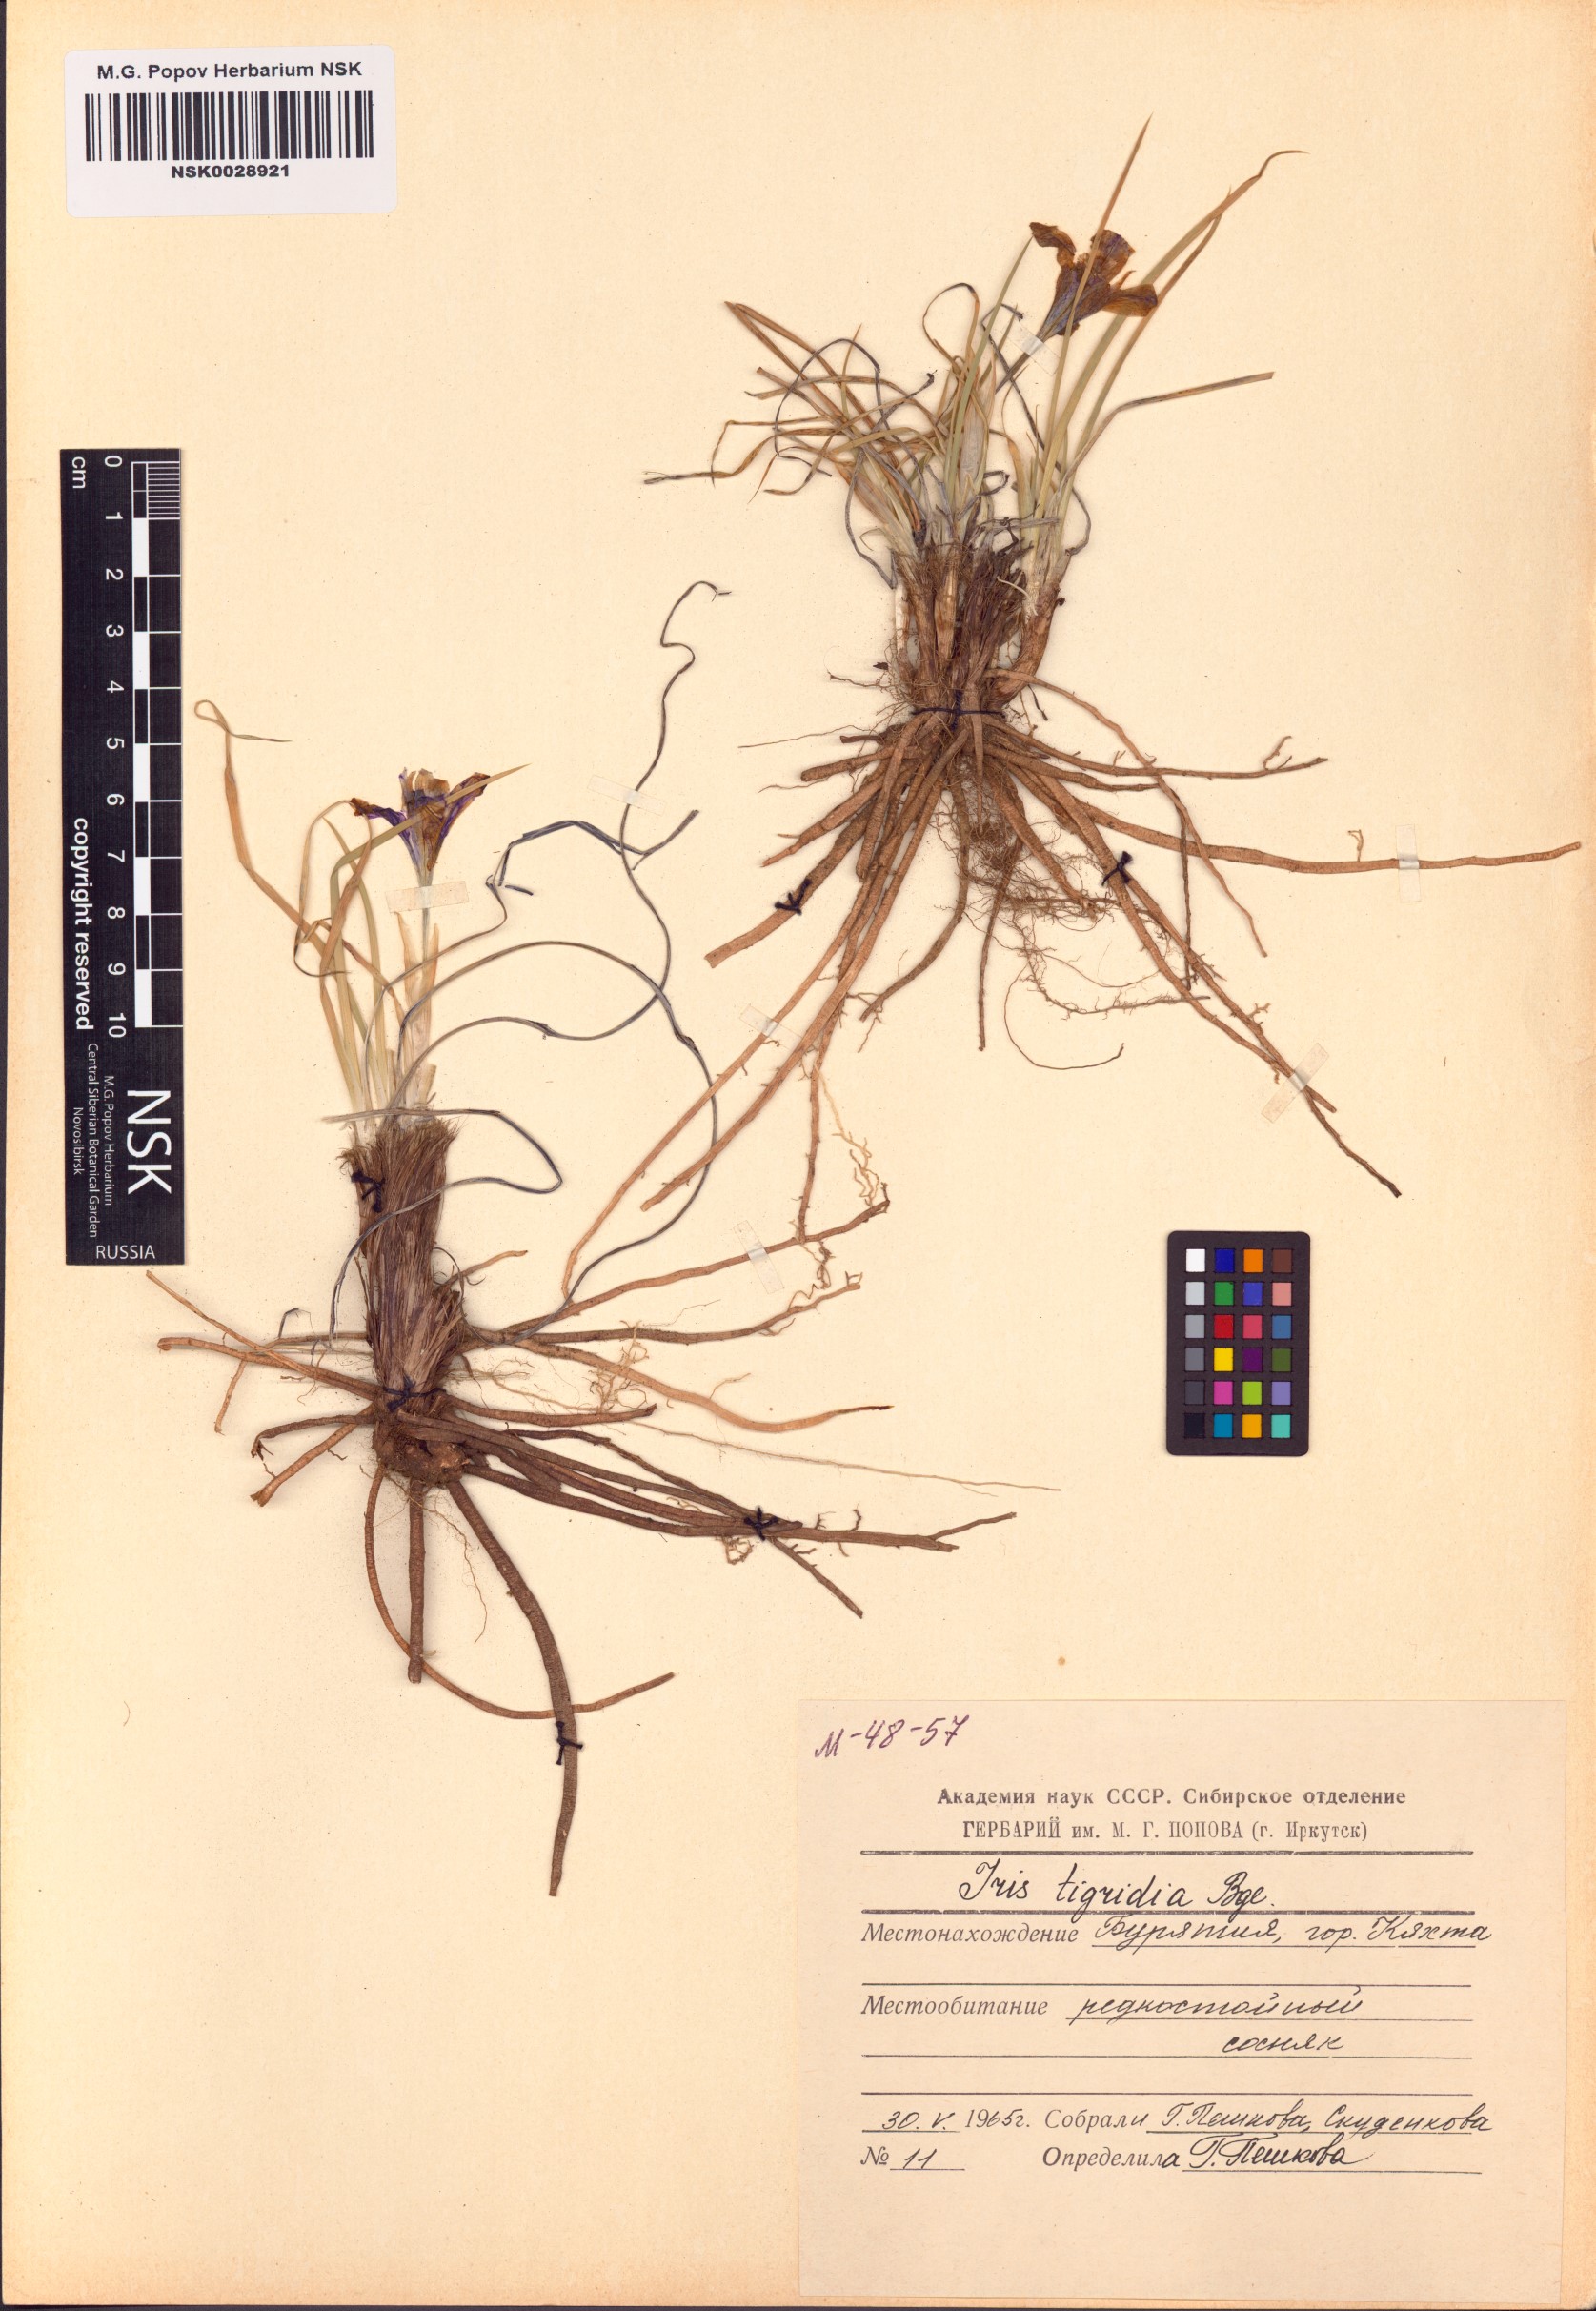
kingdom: Plantae
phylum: Tracheophyta
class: Liliopsida
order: Asparagales
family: Iridaceae
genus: Iris
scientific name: Iris tigridia
